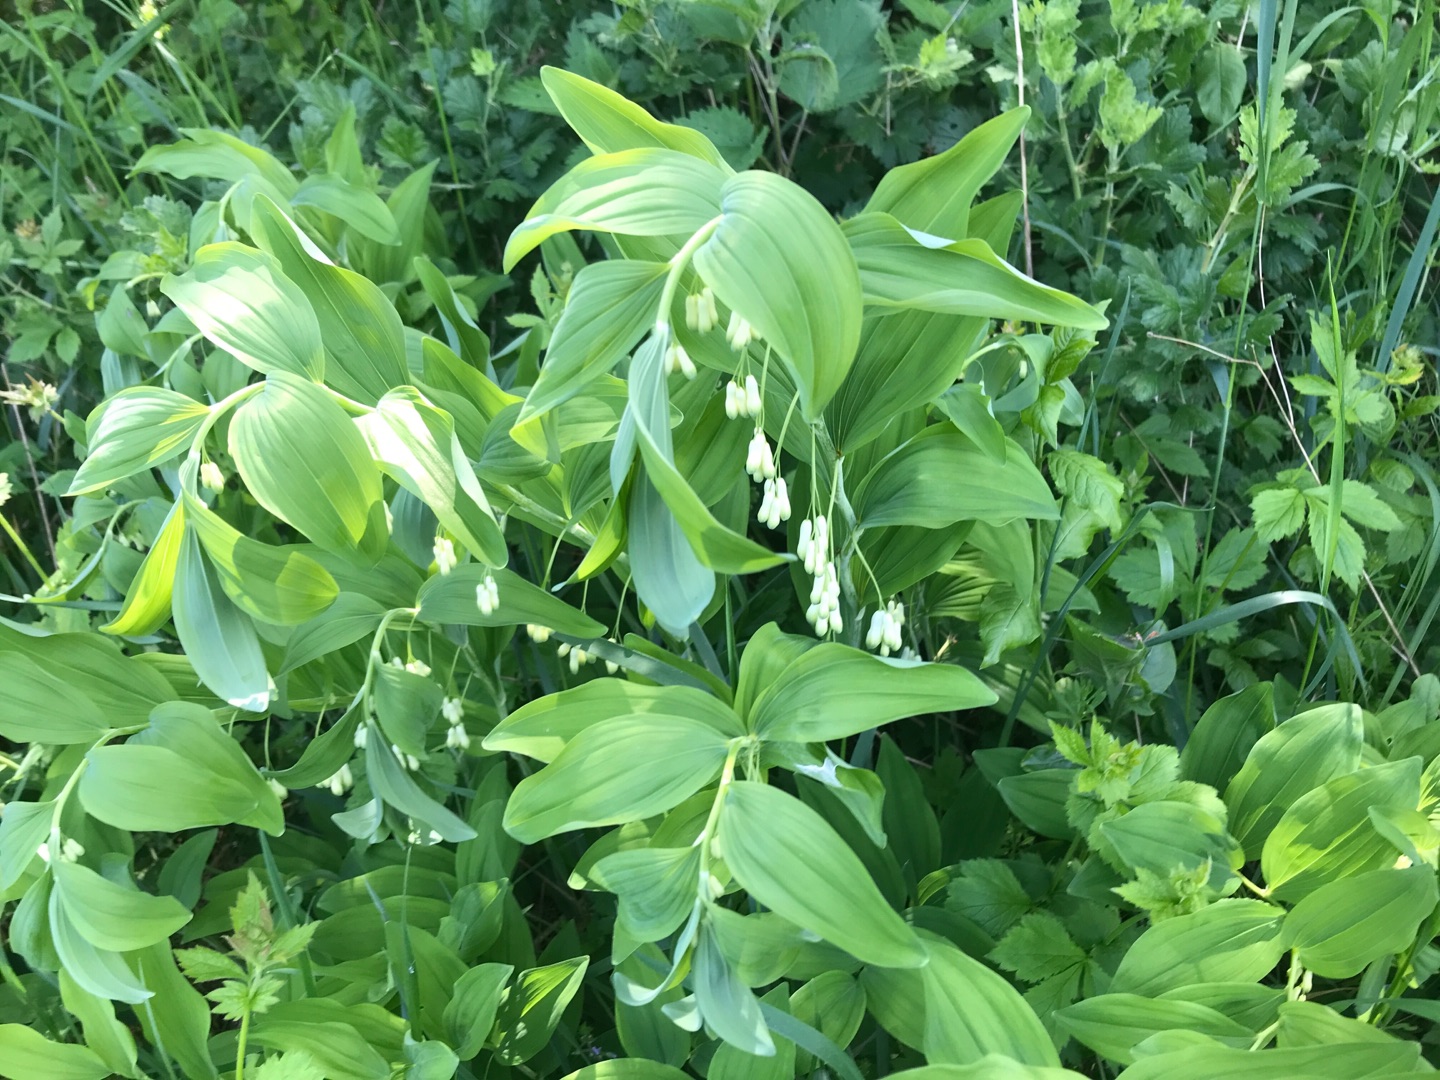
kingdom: Plantae
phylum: Tracheophyta
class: Liliopsida
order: Asparagales
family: Asparagaceae
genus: Polygonatum
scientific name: Polygonatum multiflorum
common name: Stor konval
